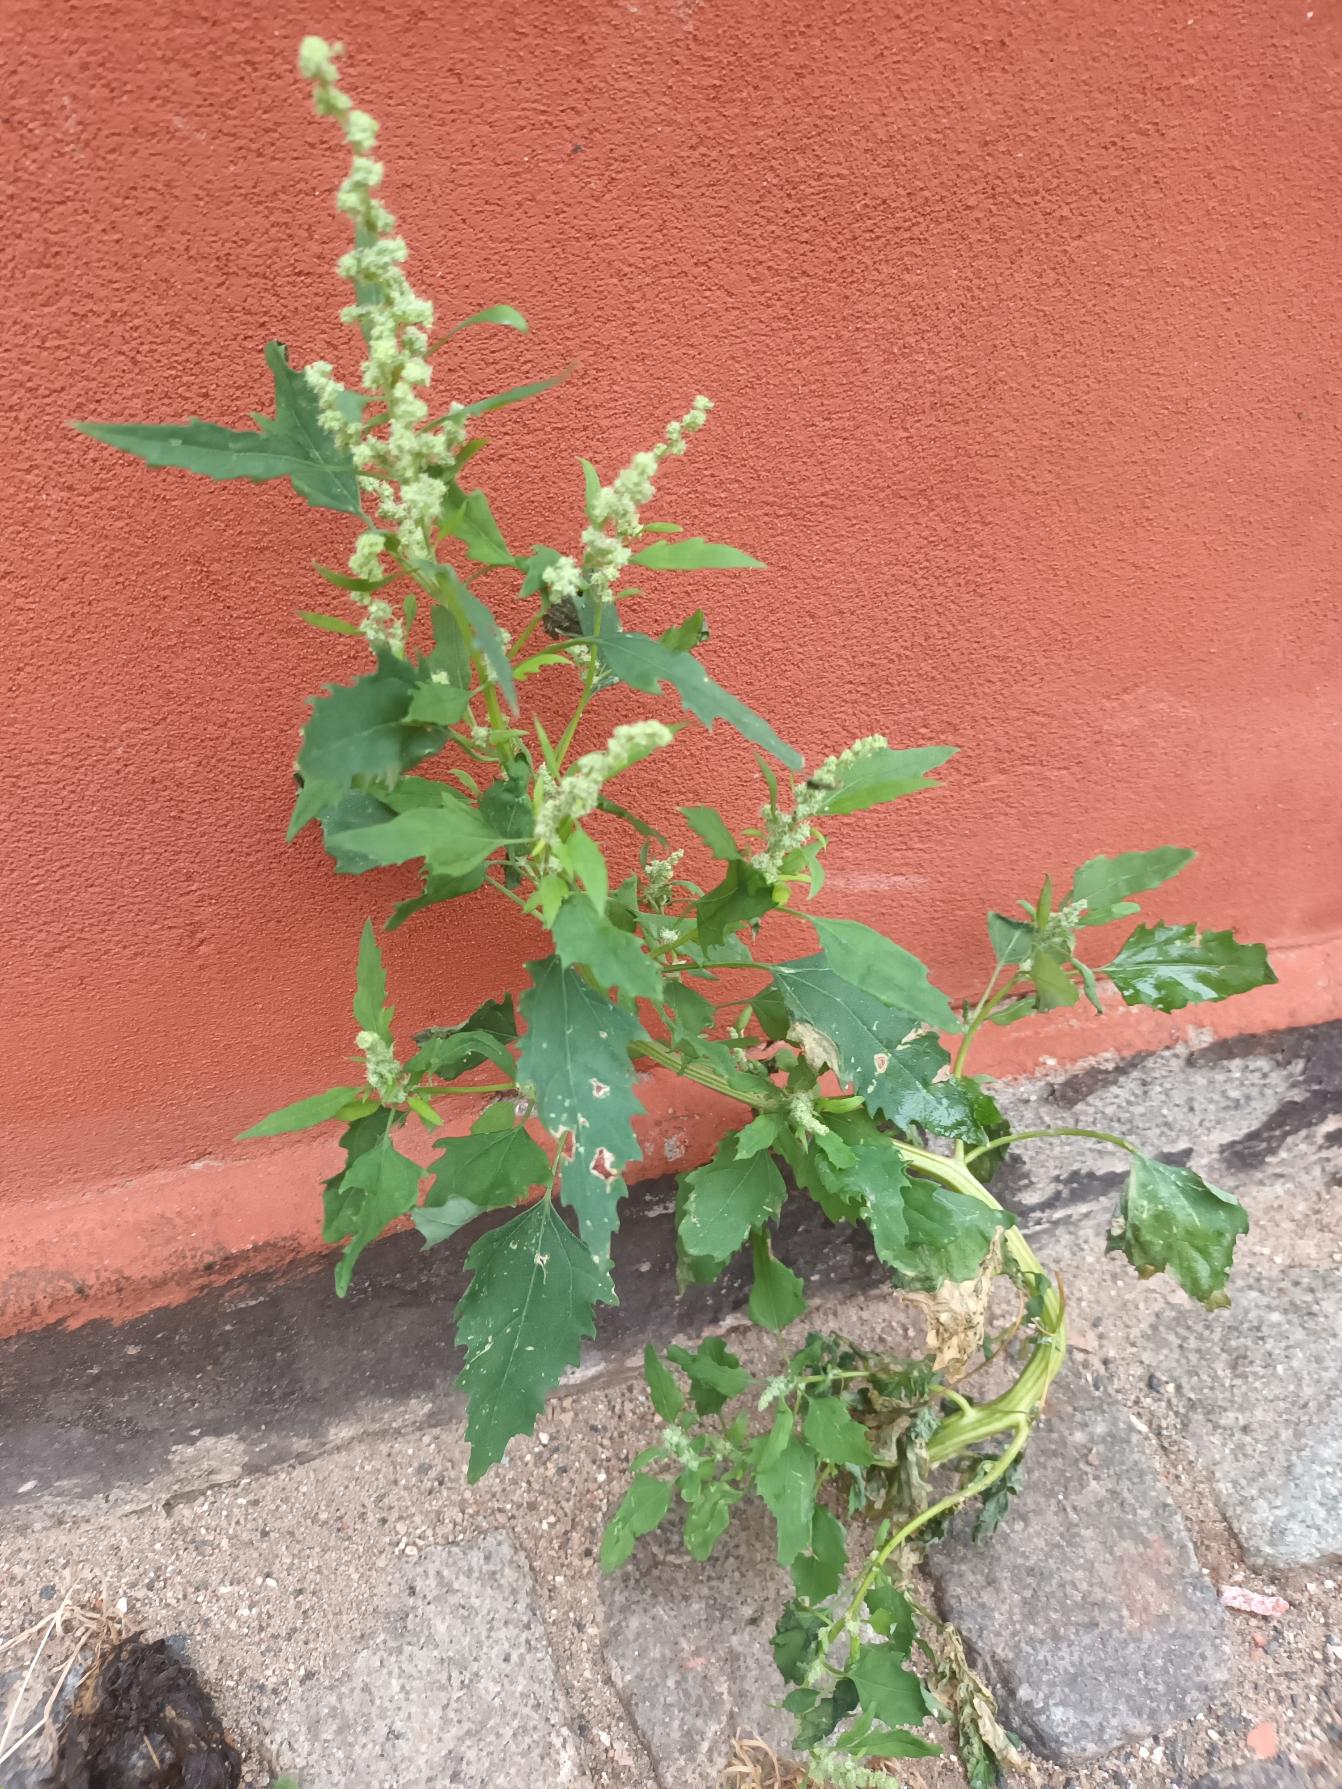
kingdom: Plantae
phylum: Tracheophyta
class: Magnoliopsida
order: Caryophyllales
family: Amaranthaceae
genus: Chenopodium
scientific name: Chenopodium album
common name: Hvidmelet gåsefod
